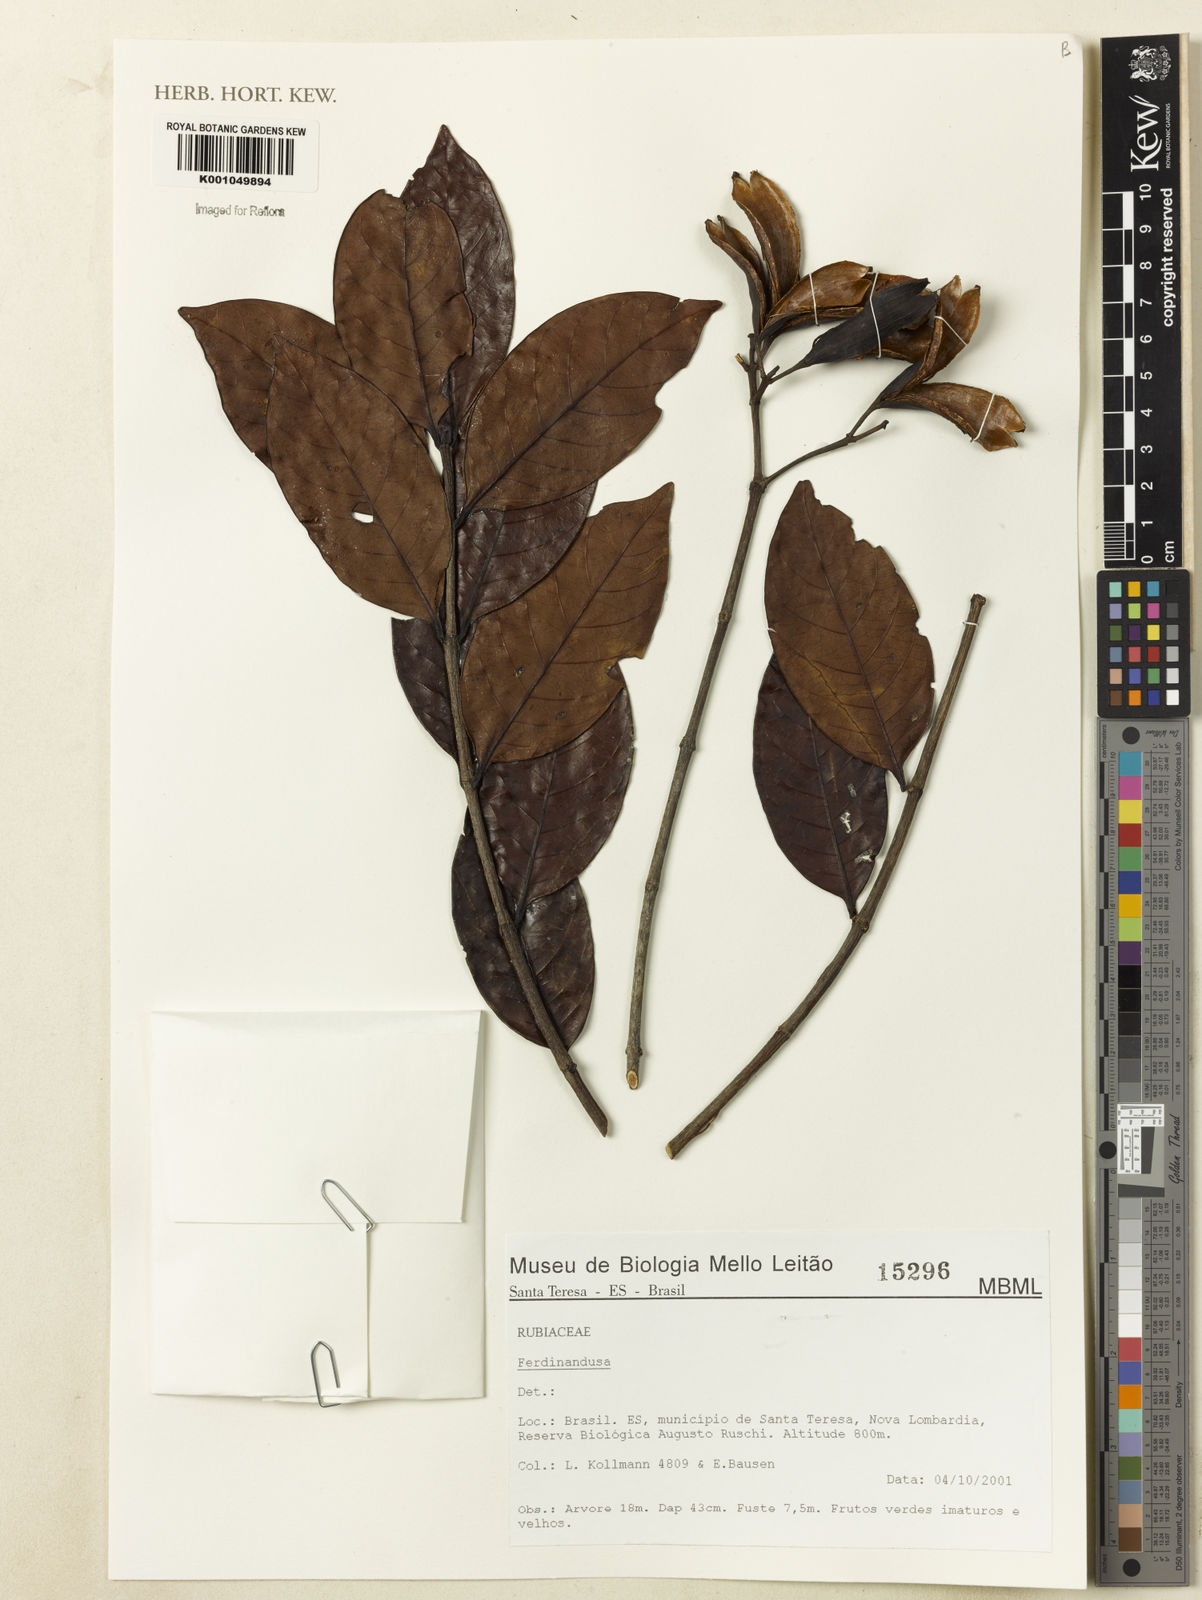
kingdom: Plantae
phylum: Tracheophyta
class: Magnoliopsida
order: Gentianales
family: Rubiaceae
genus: Ferdinandusa
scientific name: Ferdinandusa
